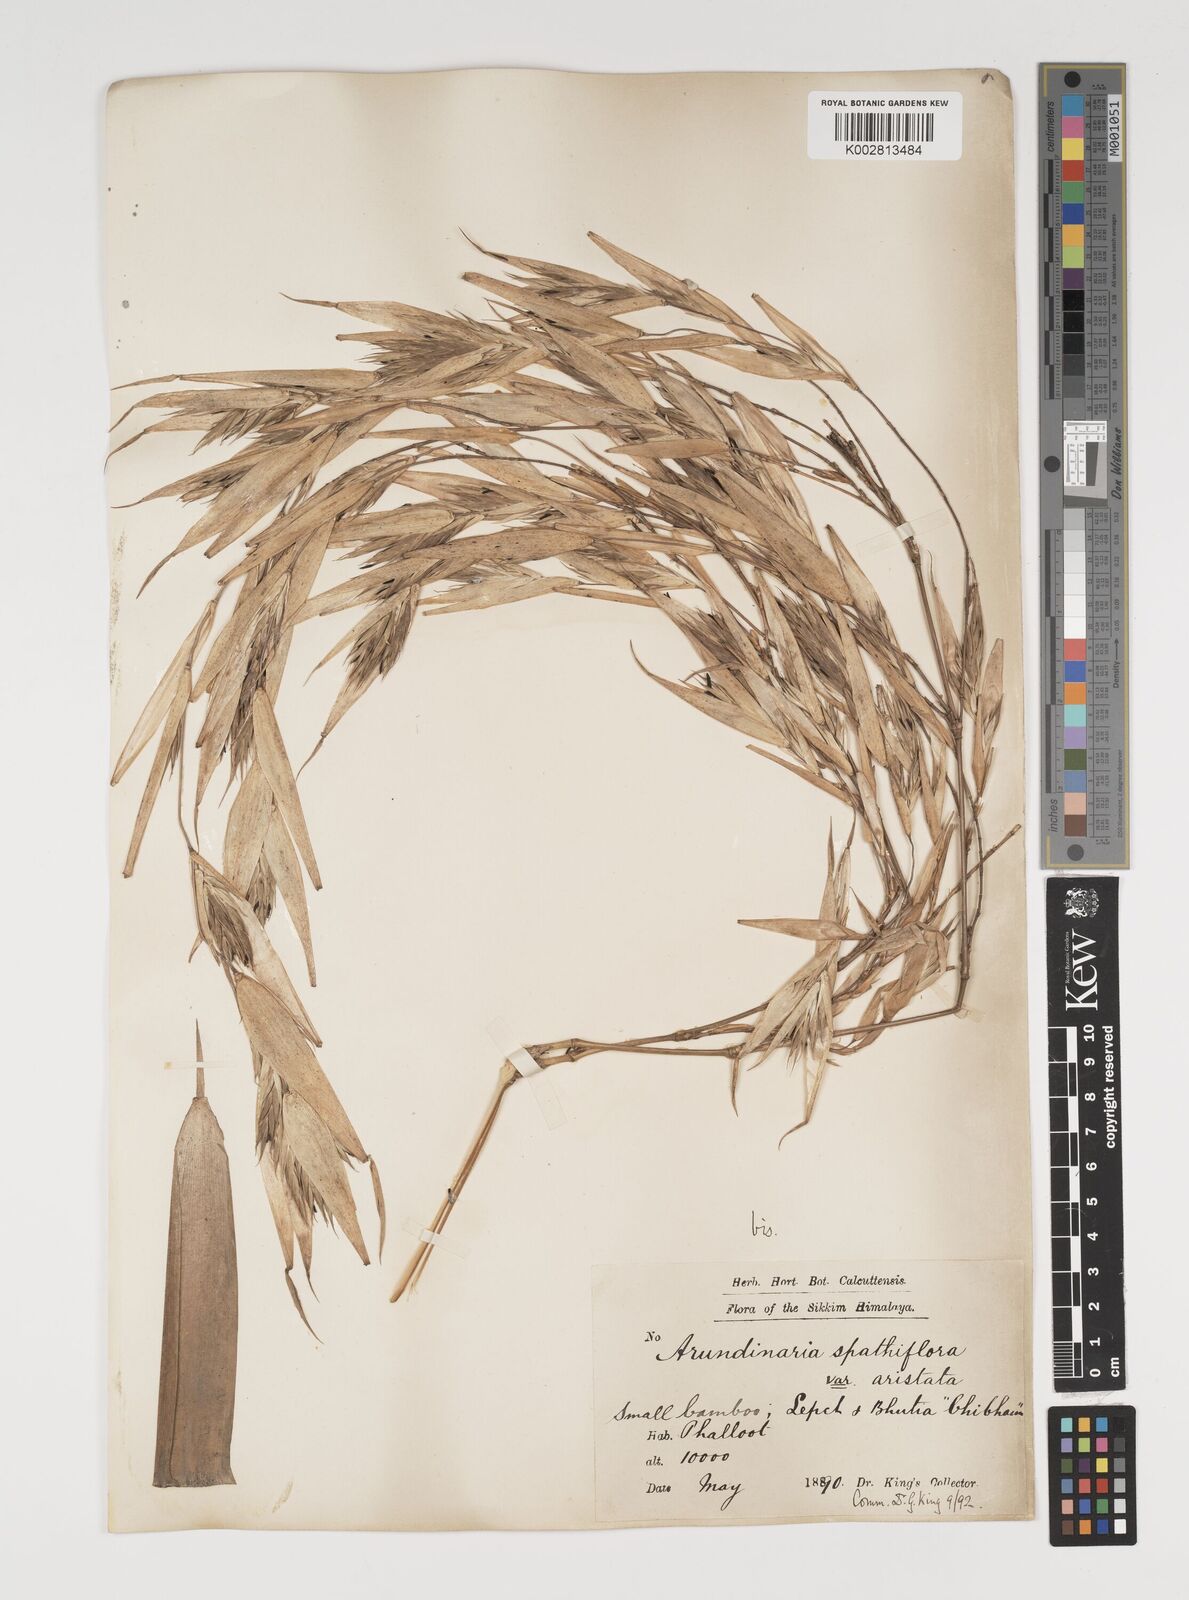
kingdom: Plantae
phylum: Tracheophyta
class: Liliopsida
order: Poales
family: Poaceae
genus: Thamnocalamus
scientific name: Thamnocalamus spathiflorus
